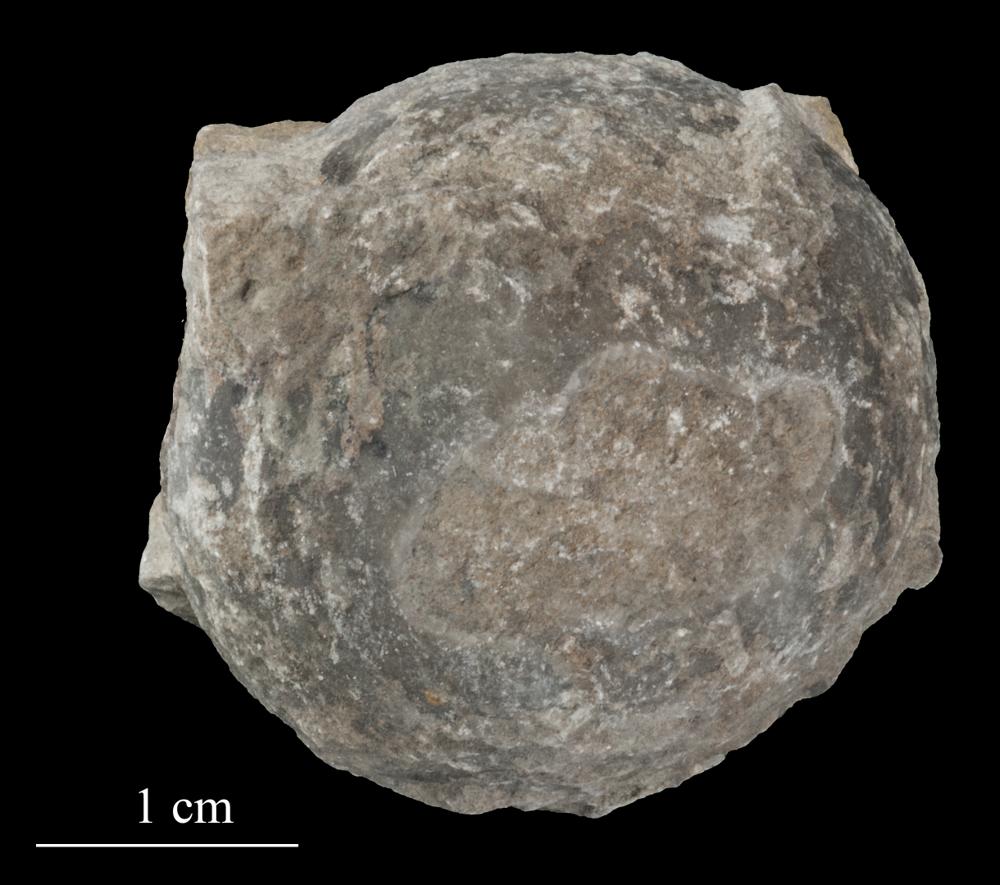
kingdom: Animalia
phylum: Echinodermata
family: Echinosphaeritidae
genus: Echinosphaerites
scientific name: Echinosphaerites Echinus aurantium
